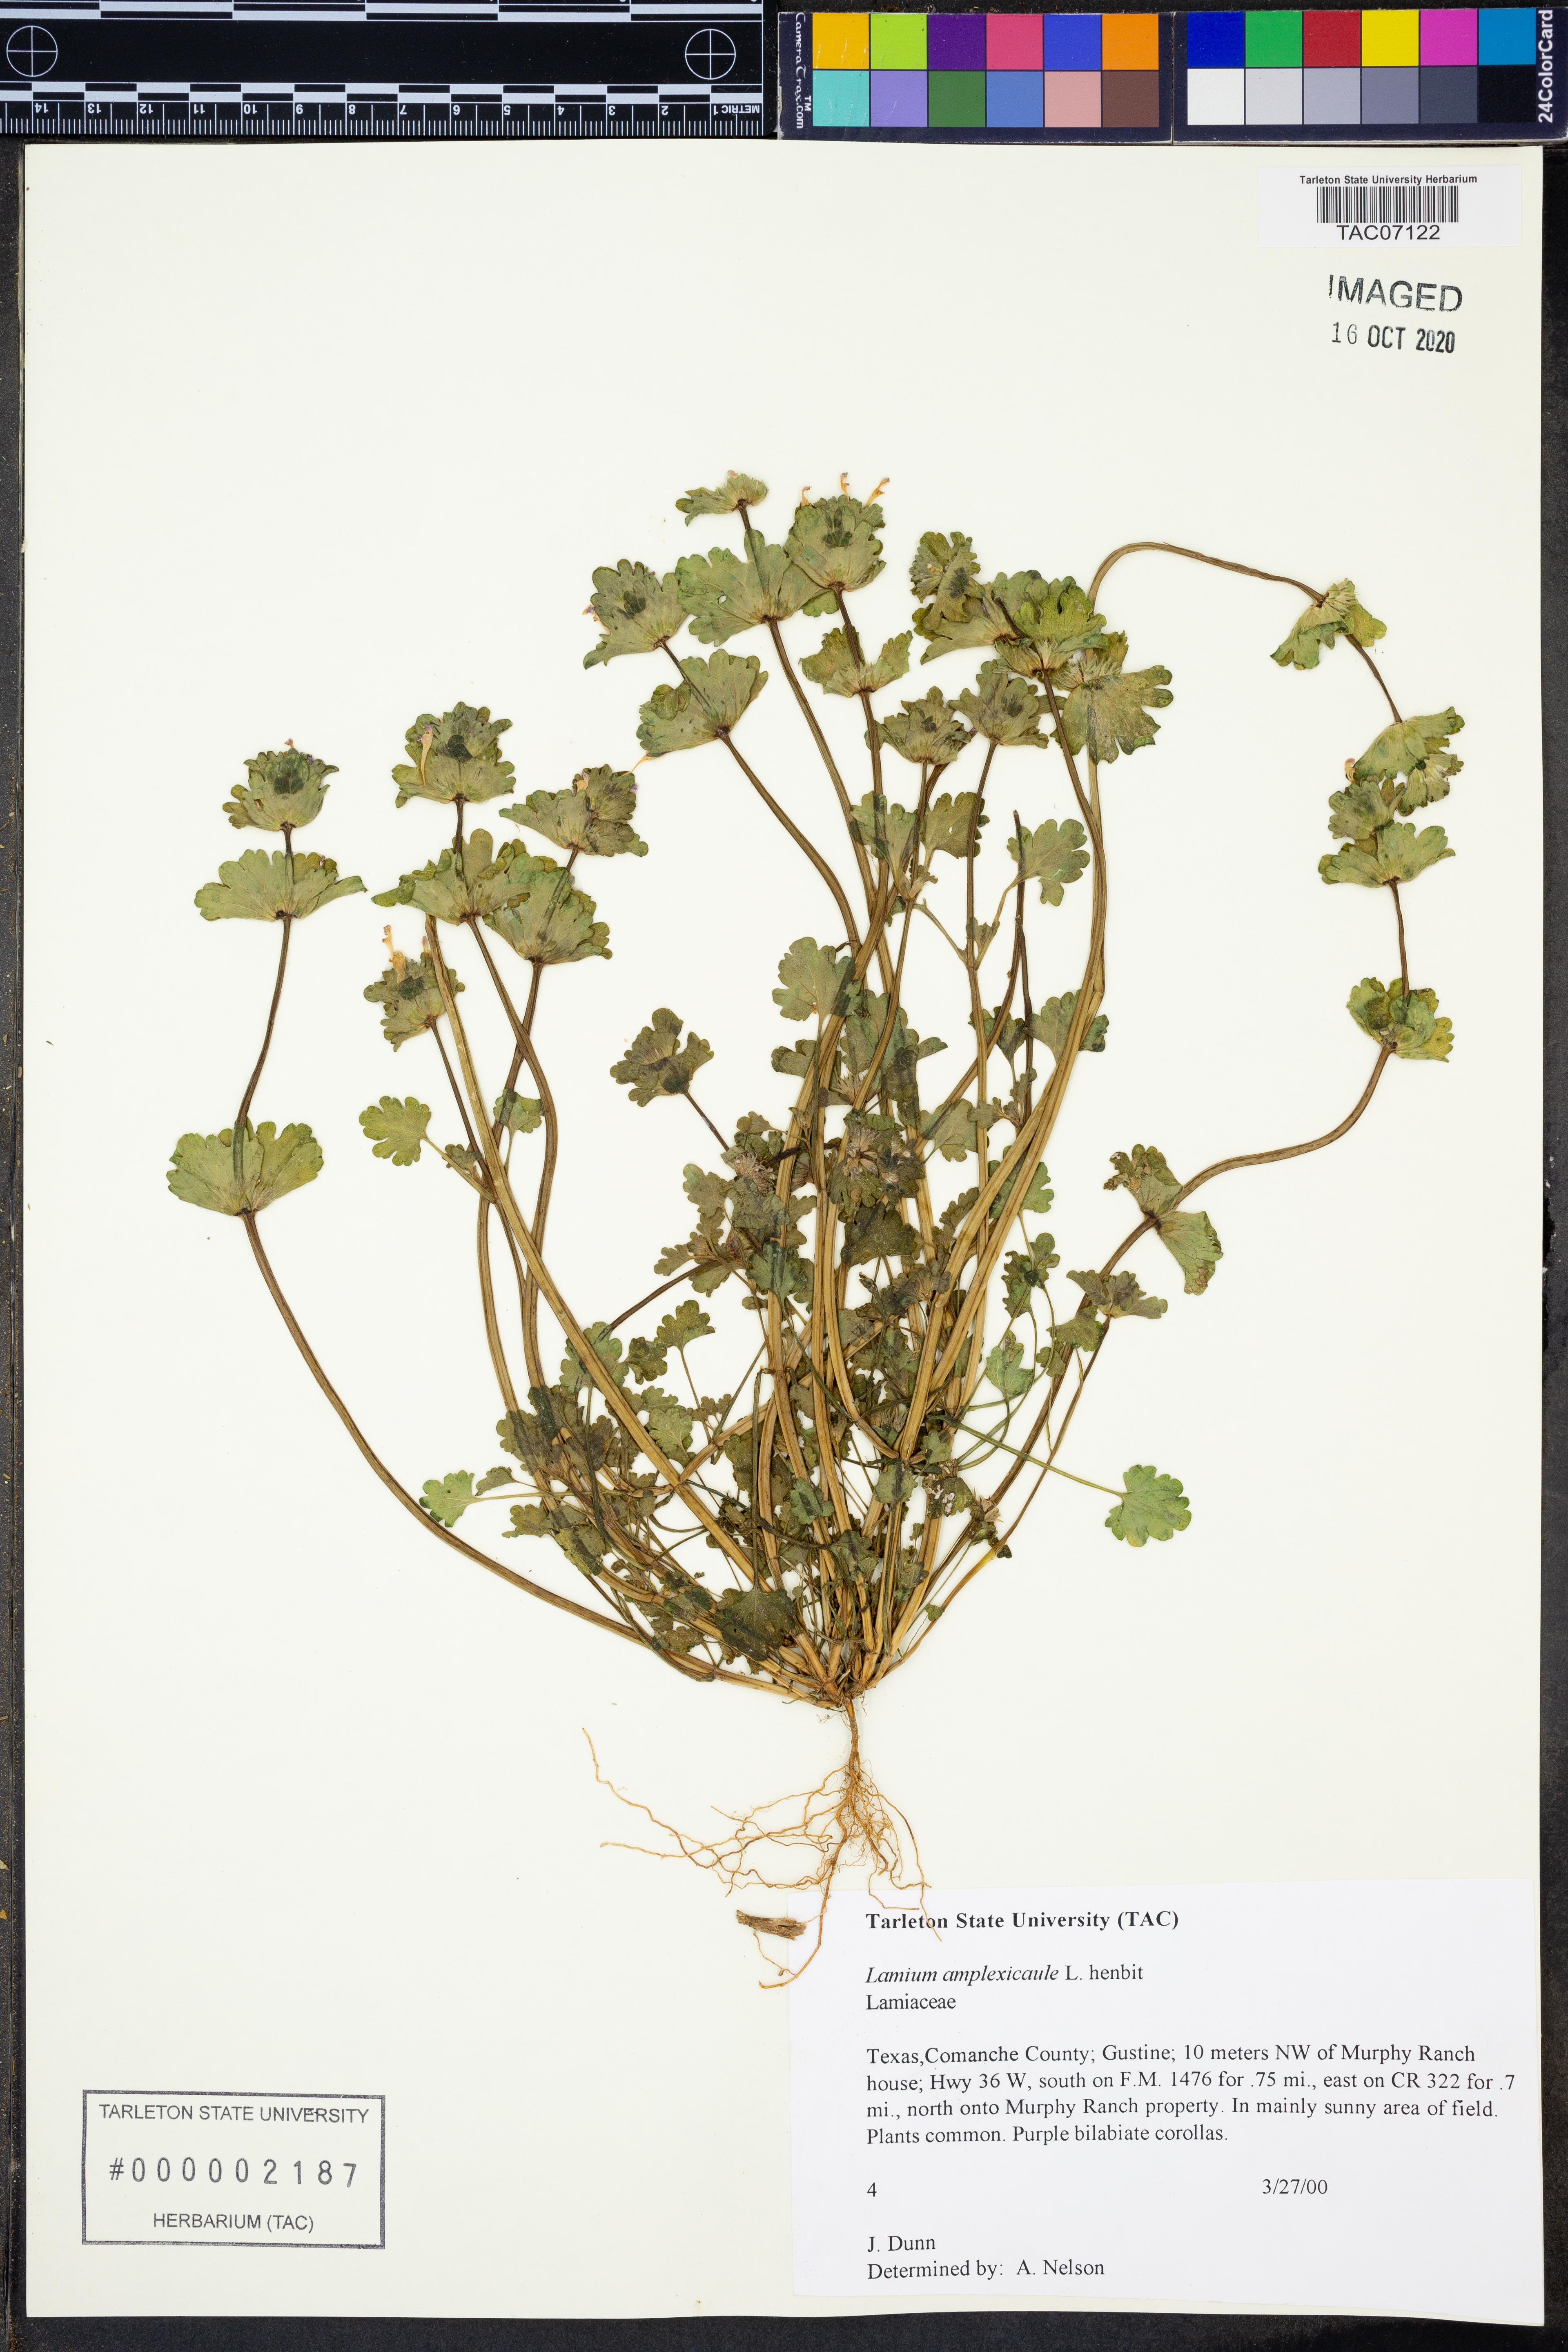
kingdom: Plantae
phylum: Tracheophyta
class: Magnoliopsida
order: Lamiales
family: Lamiaceae
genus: Lamium
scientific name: Lamium amplexicaule
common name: Henbit dead-nettle
